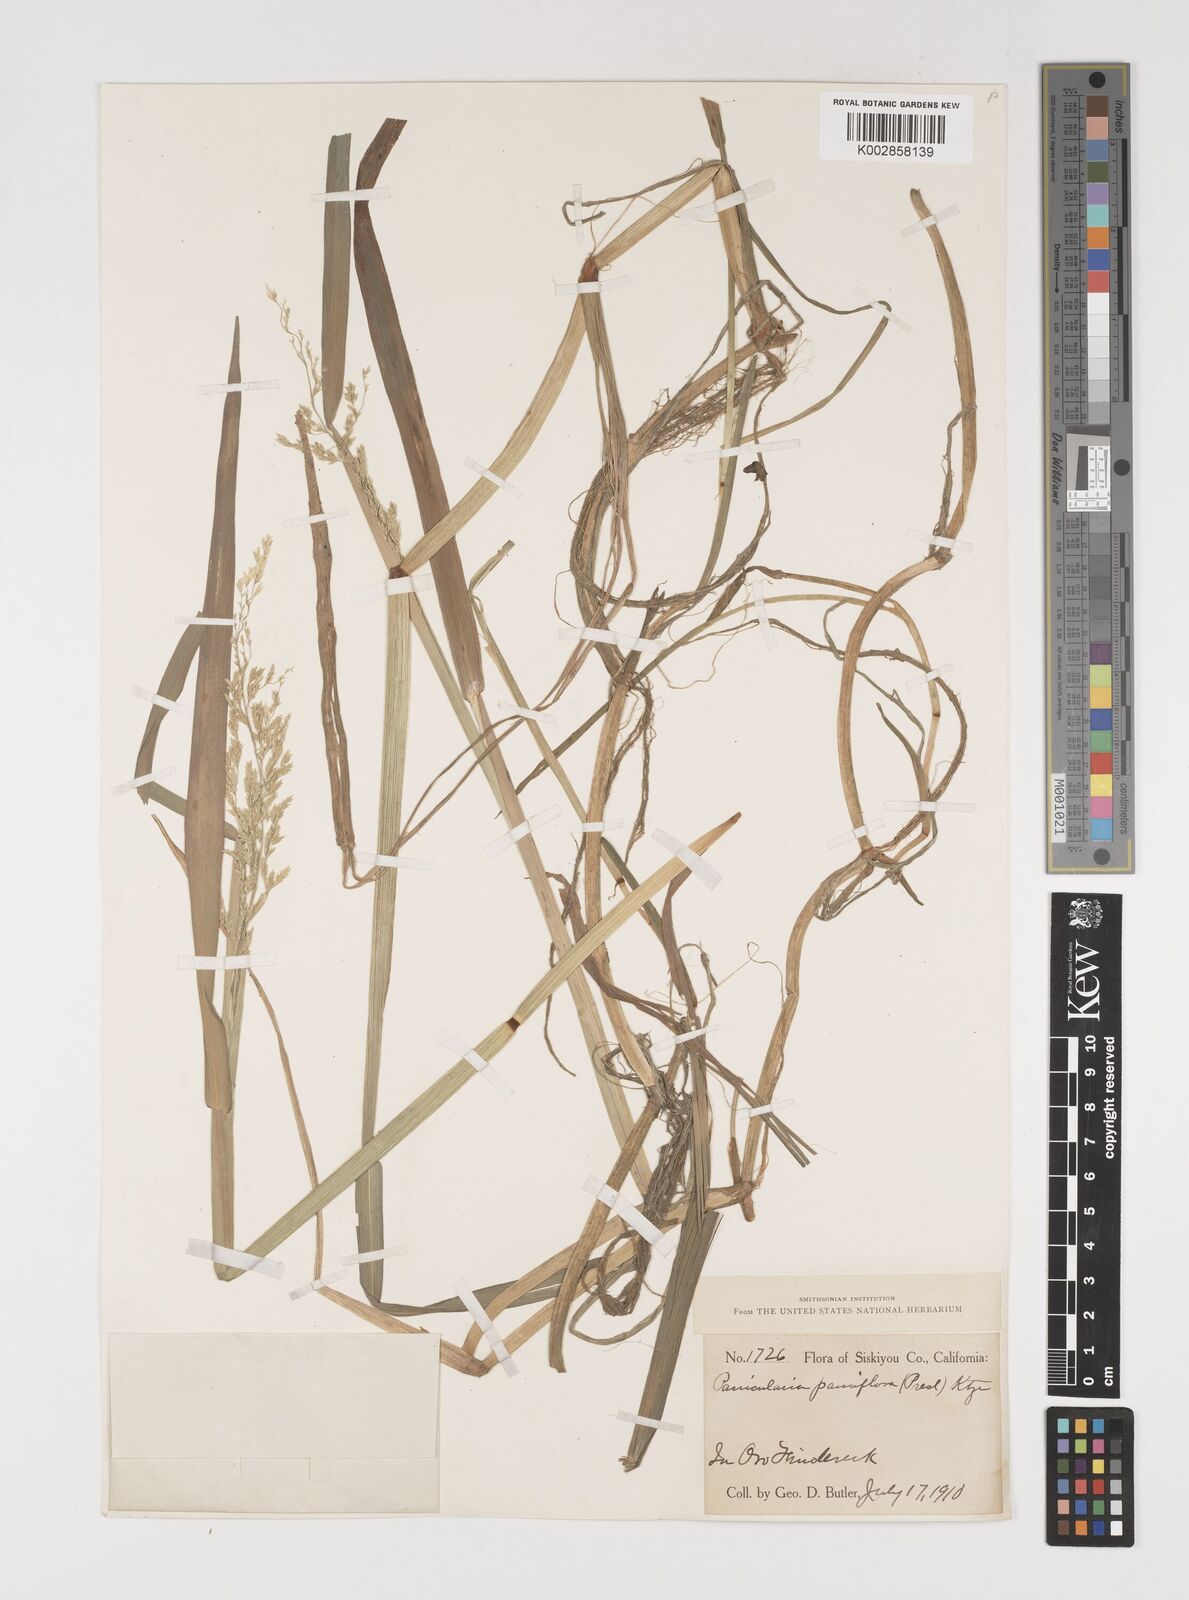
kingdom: Plantae
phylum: Tracheophyta
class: Liliopsida
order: Poales
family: Poaceae
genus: Torreyochloa
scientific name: Torreyochloa pallida
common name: Pale false mannagrass
